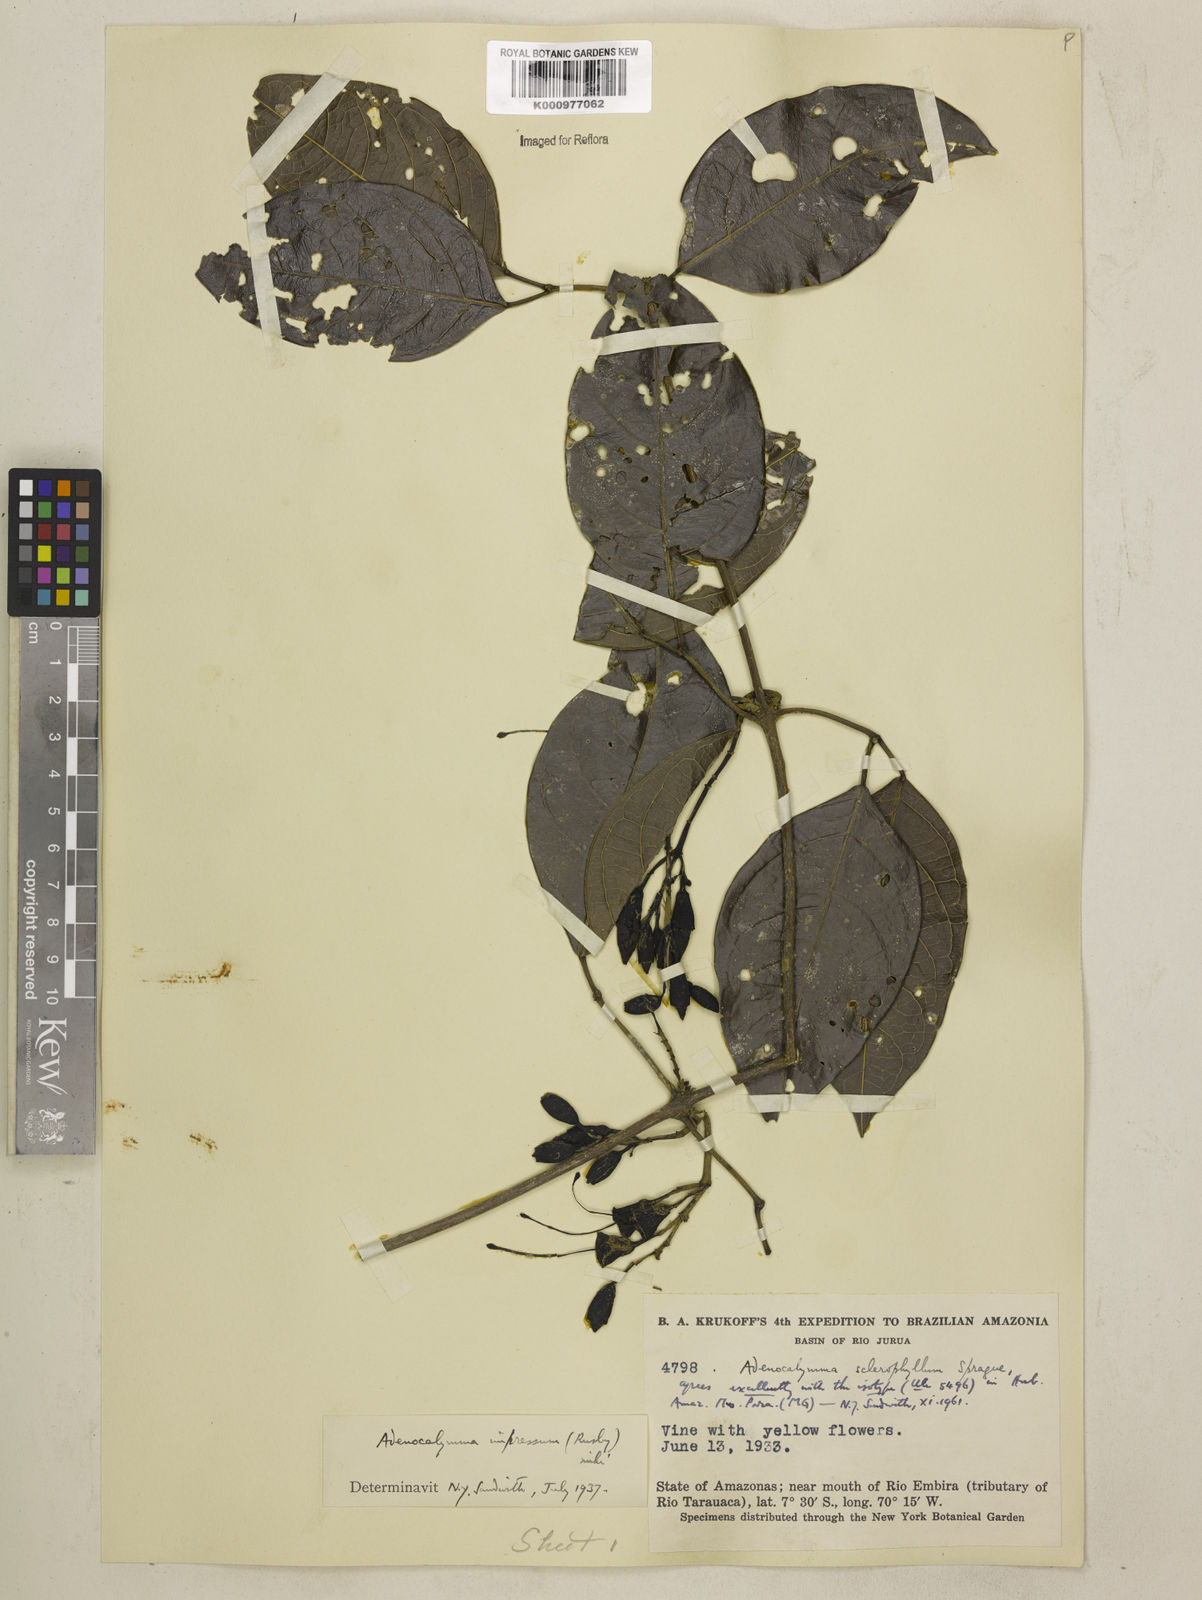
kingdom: Plantae
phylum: Tracheophyta
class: Magnoliopsida
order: Lamiales
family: Bignoniaceae
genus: Adenocalymma
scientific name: Adenocalymma impressum
